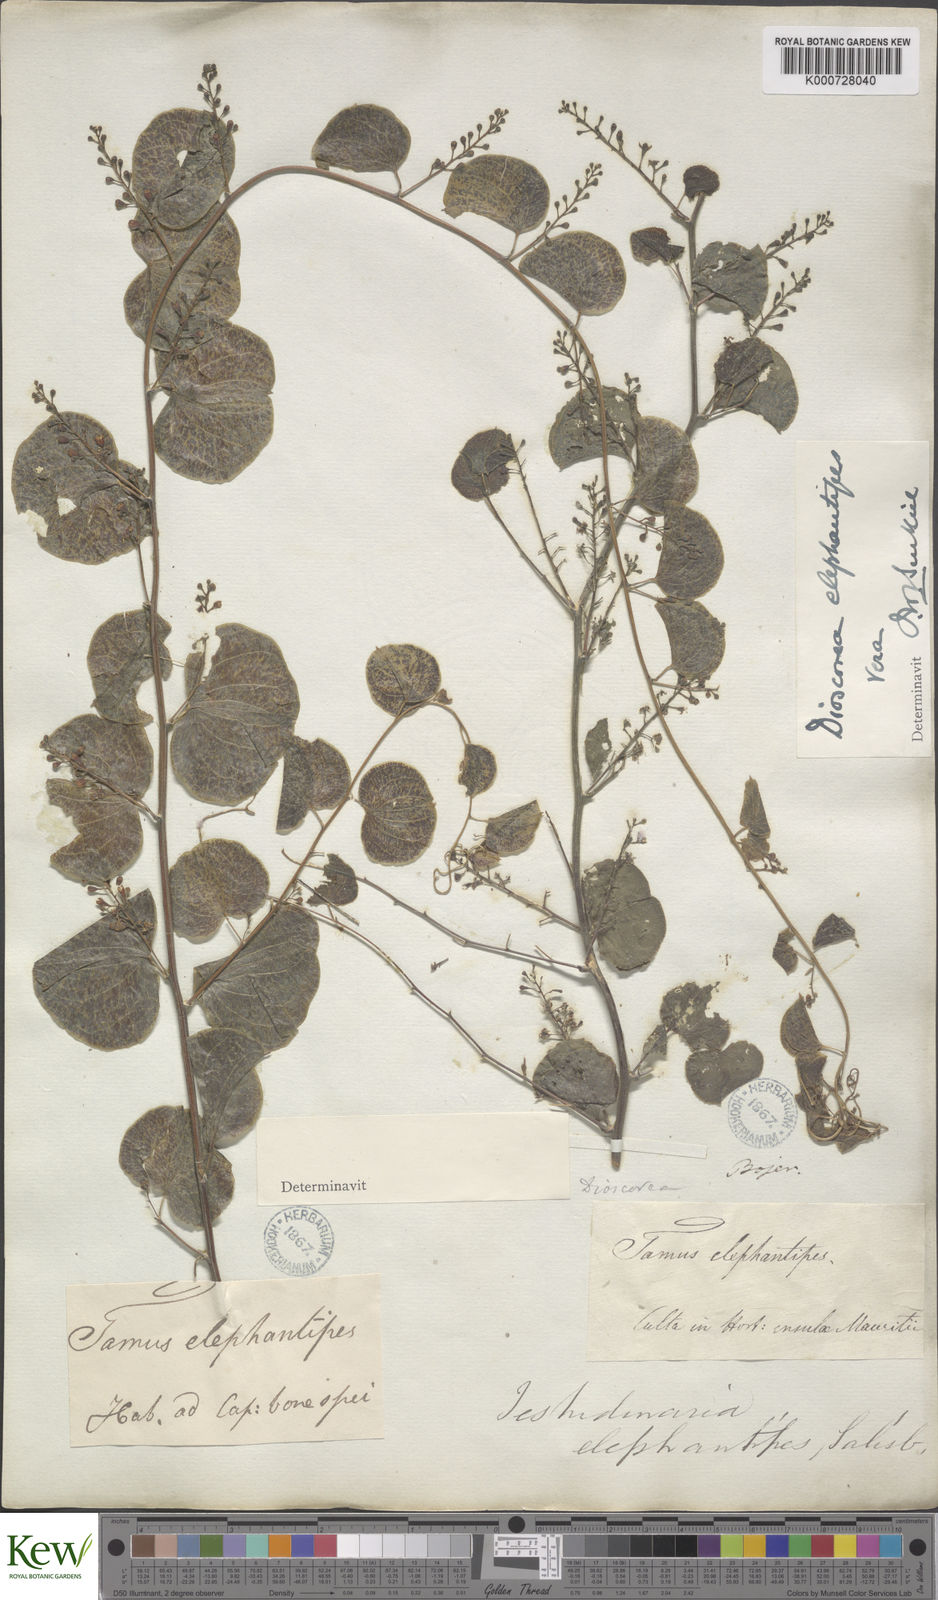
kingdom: Plantae
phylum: Tracheophyta
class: Liliopsida
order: Dioscoreales
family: Dioscoreaceae
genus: Dioscorea
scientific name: Dioscorea
